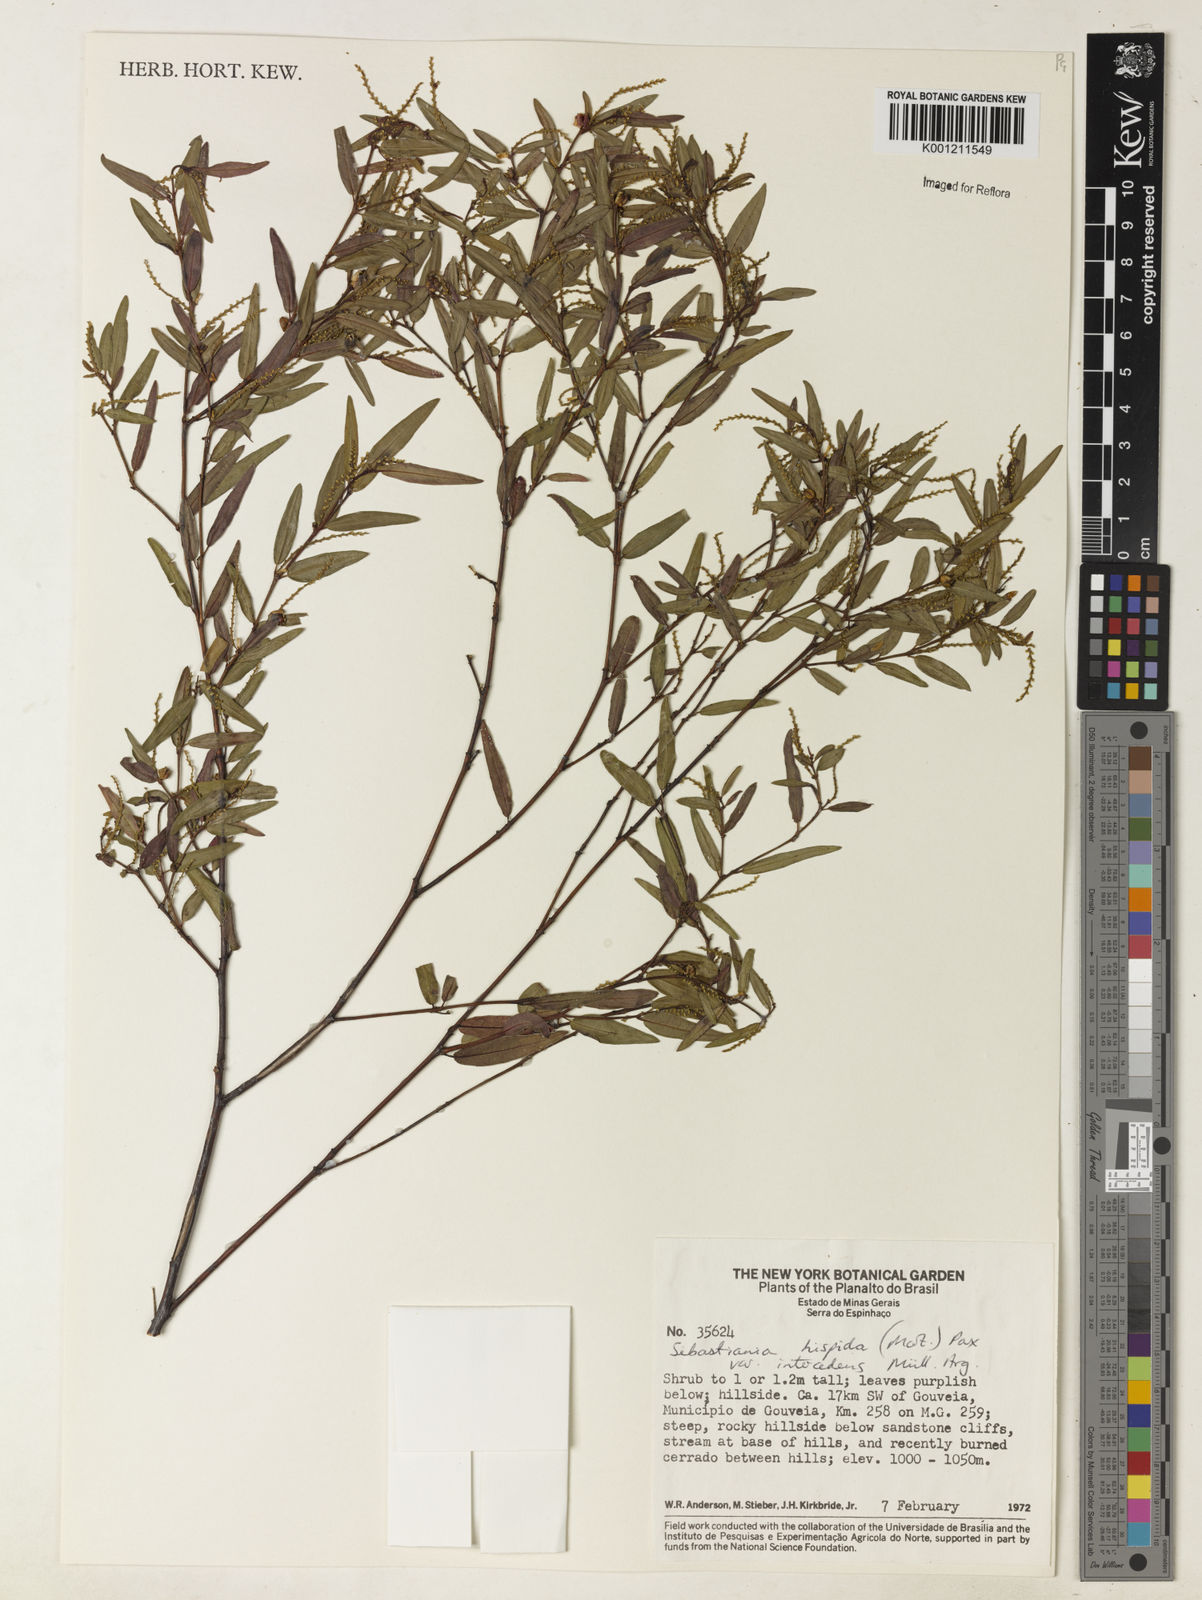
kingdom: Plantae
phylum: Tracheophyta
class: Magnoliopsida
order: Malpighiales
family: Euphorbiaceae
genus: Microstachys
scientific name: Microstachys hispida
